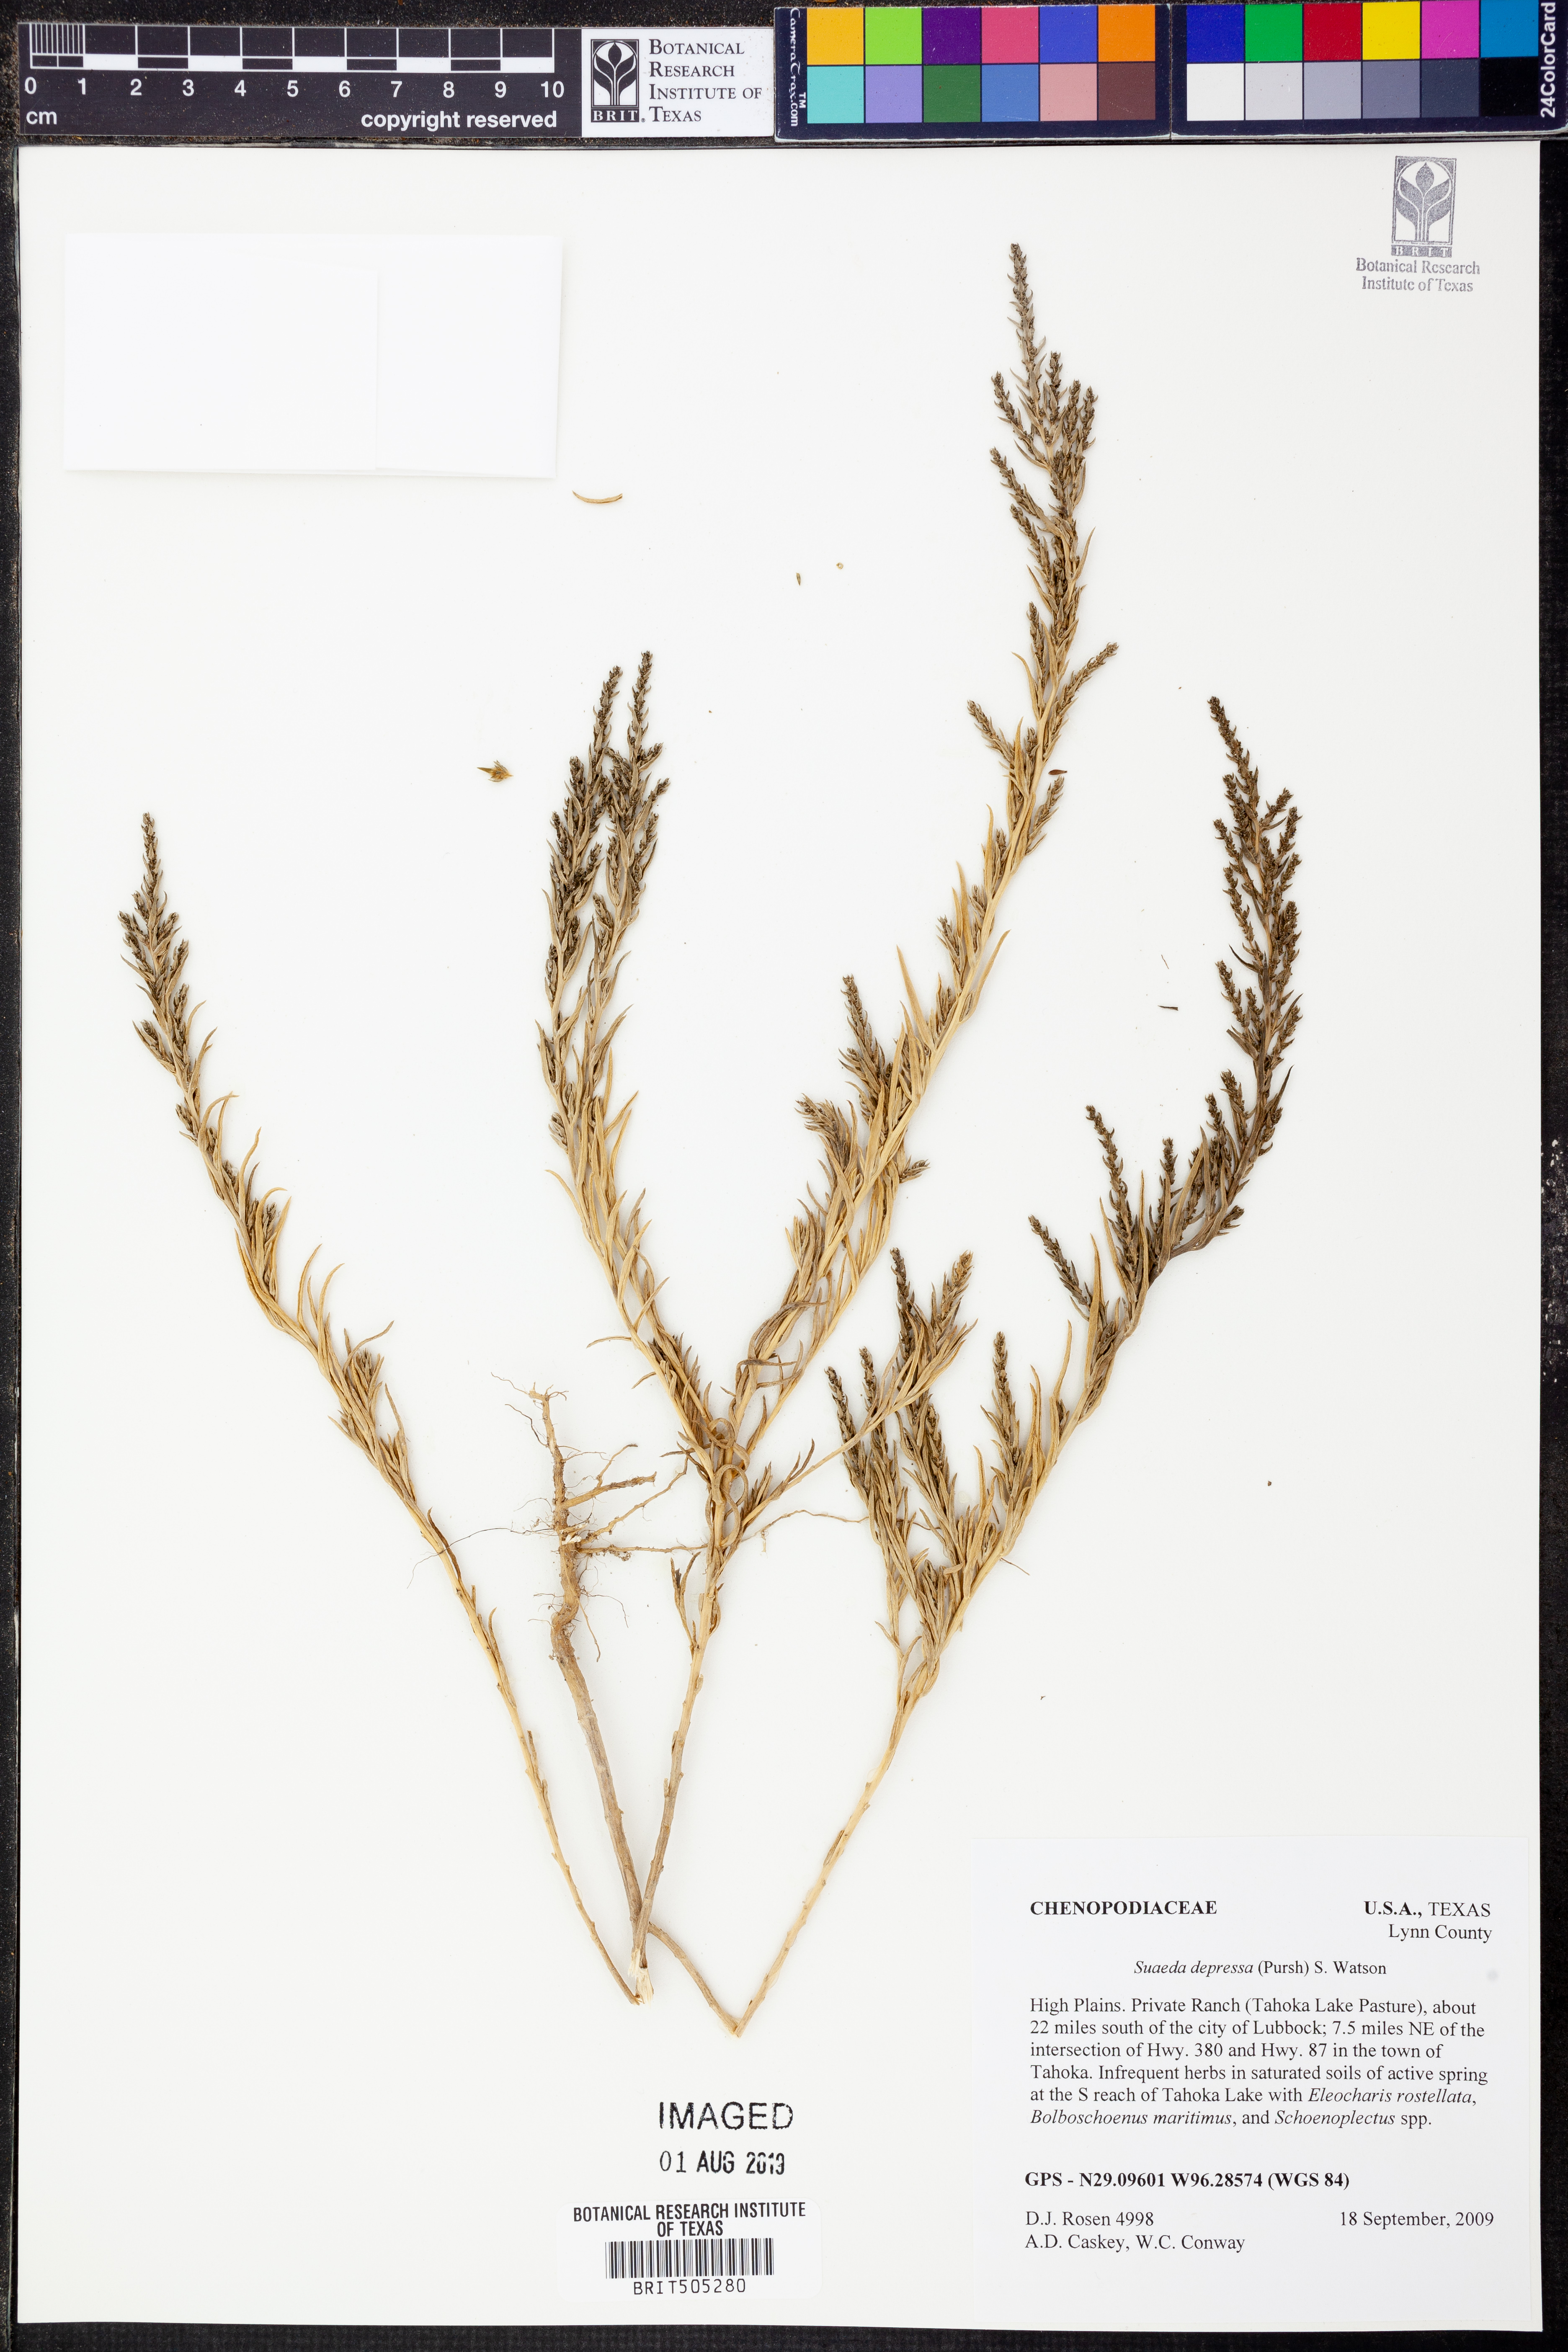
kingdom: Plantae
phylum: Tracheophyta
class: Magnoliopsida
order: Caryophyllales
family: Amaranthaceae
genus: Suaeda
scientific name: Suaeda calceoliformis
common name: Pursh's seepweed
